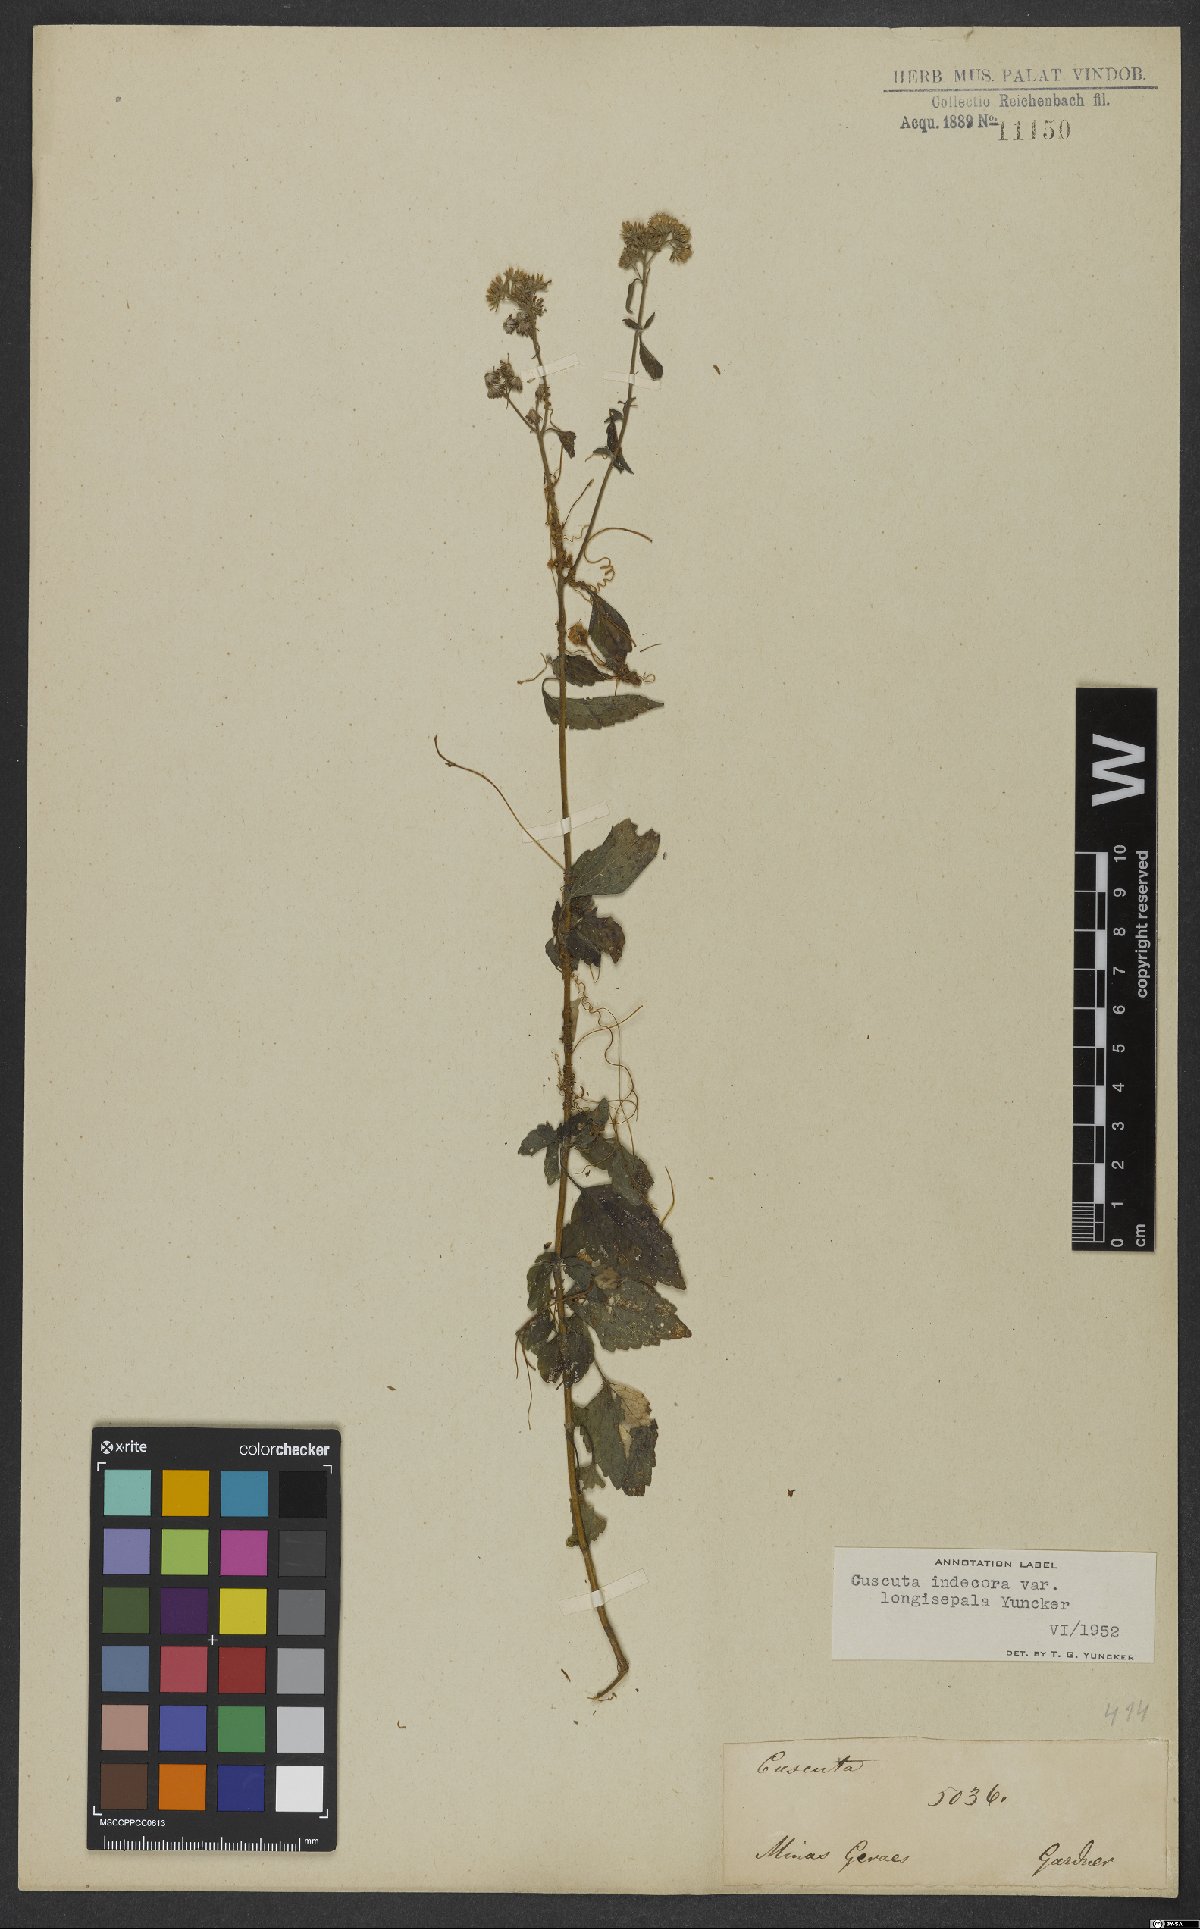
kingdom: Plantae
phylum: Tracheophyta
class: Magnoliopsida
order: Solanales
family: Convolvulaceae
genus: Cuscuta
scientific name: Cuscuta indecora
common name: Large-seed dodder
